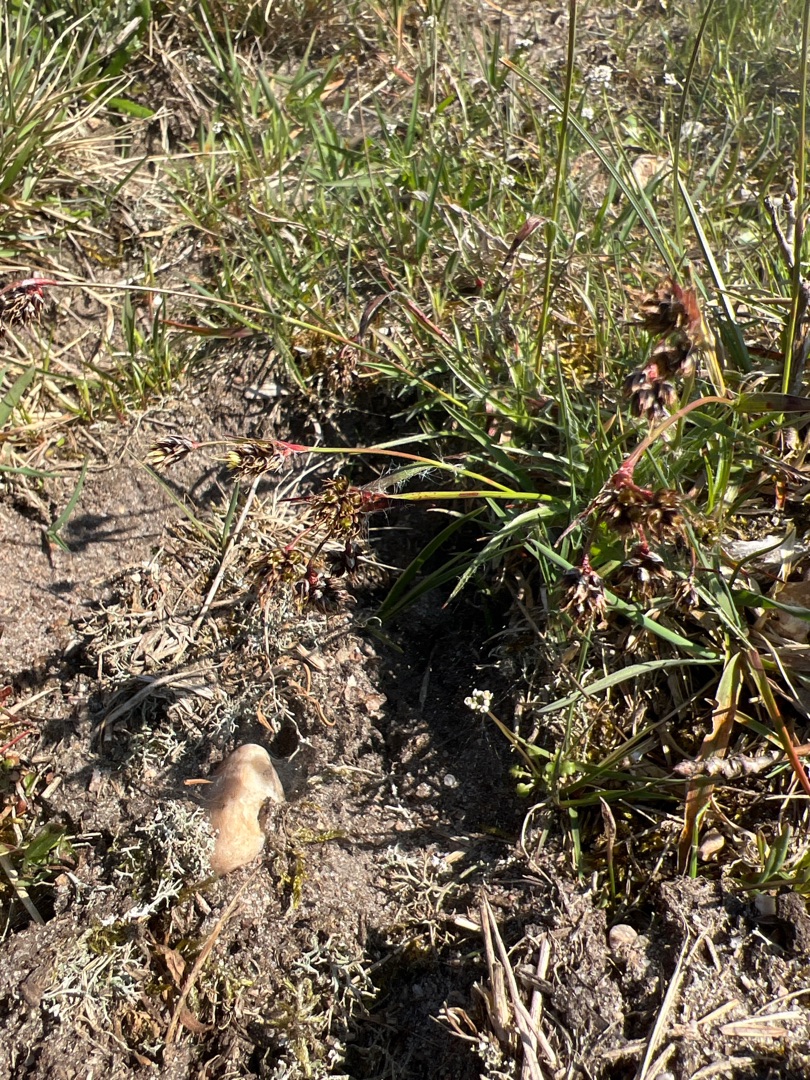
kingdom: Plantae
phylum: Tracheophyta
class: Liliopsida
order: Poales
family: Juncaceae
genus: Luzula
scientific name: Luzula campestris
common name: Mark-frytle
